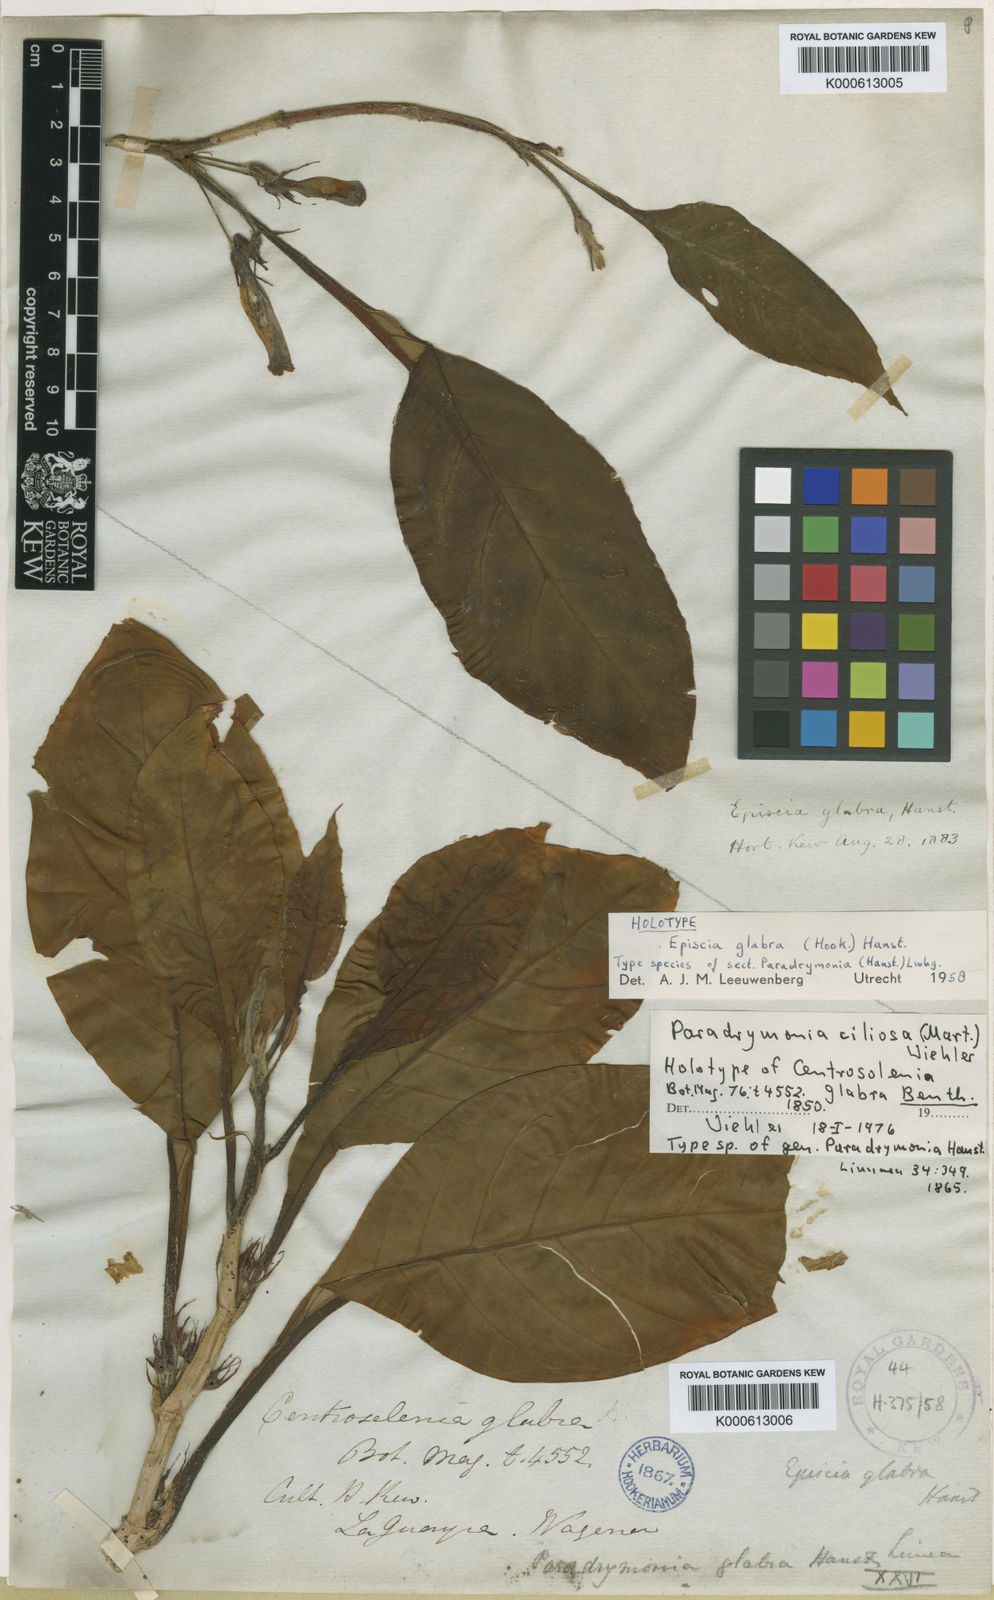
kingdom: Plantae
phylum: Tracheophyta
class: Magnoliopsida
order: Lamiales
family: Gesneriaceae
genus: Paradrymonia
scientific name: Paradrymonia ciliosa
